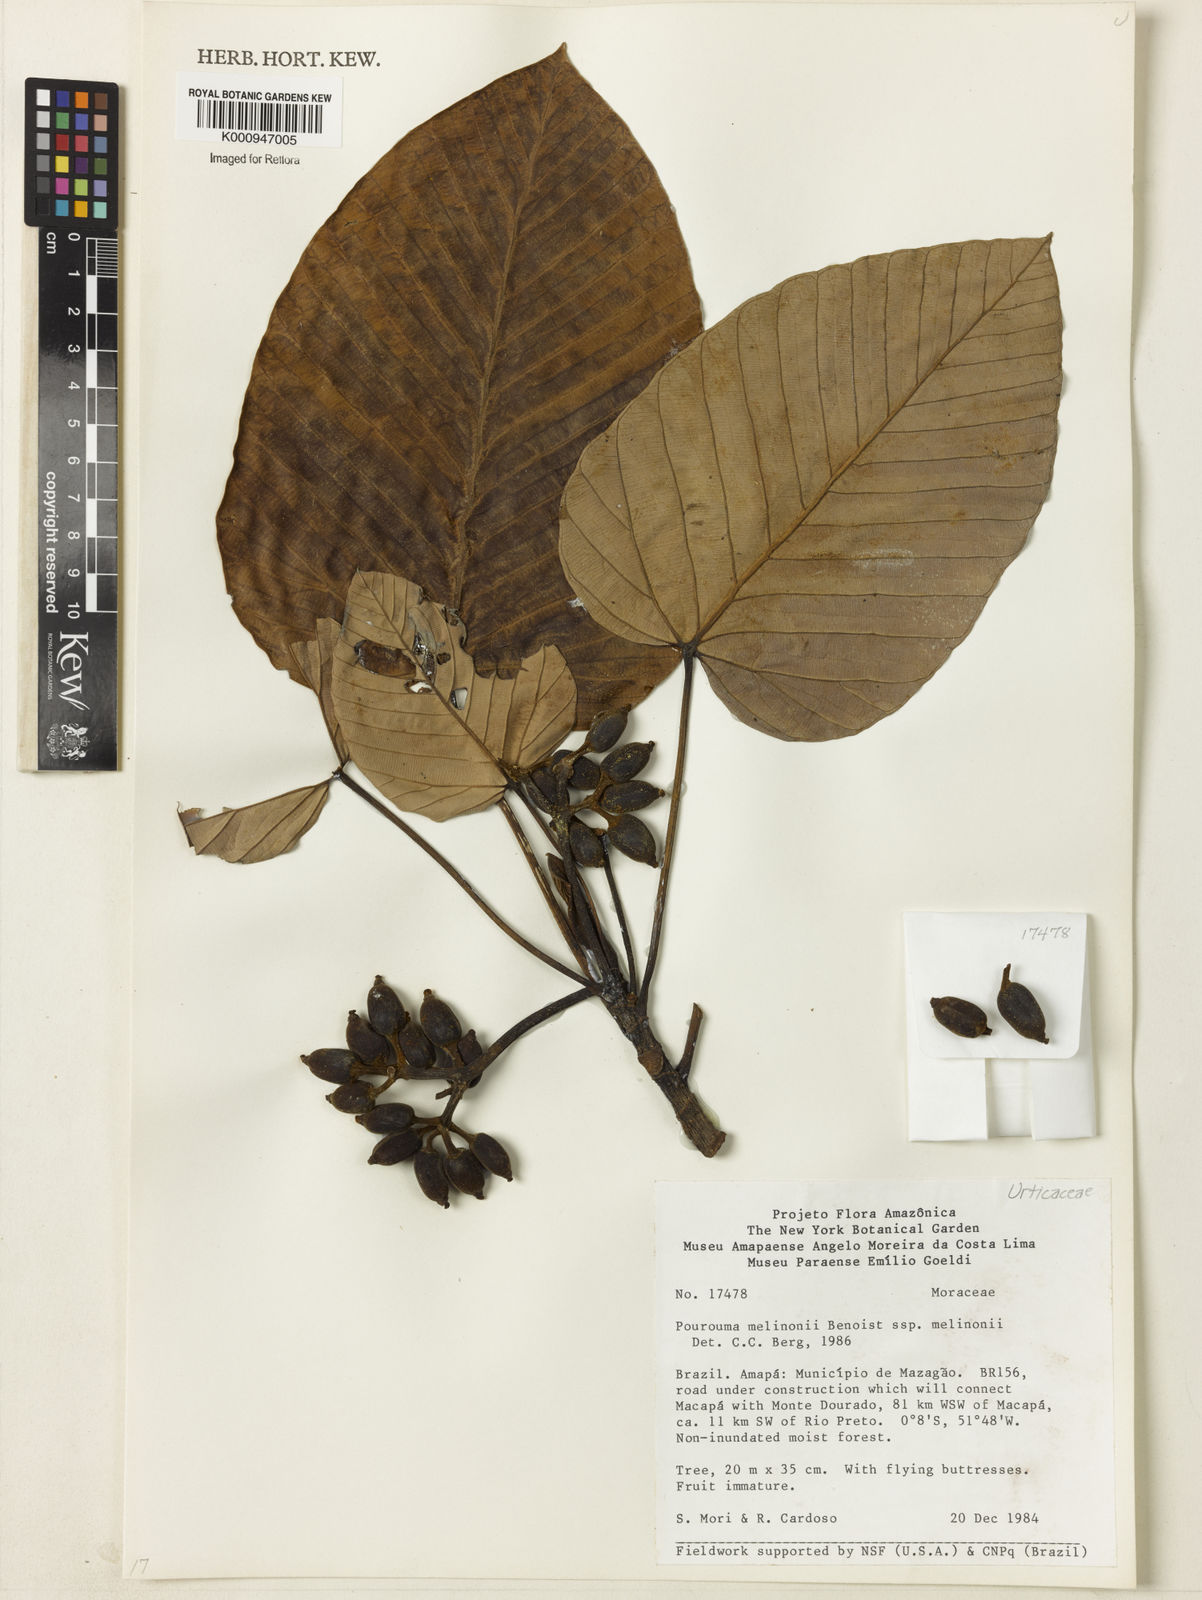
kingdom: Plantae
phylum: Tracheophyta
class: Magnoliopsida
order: Rosales
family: Urticaceae
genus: Pourouma
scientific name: Pourouma melinonii
